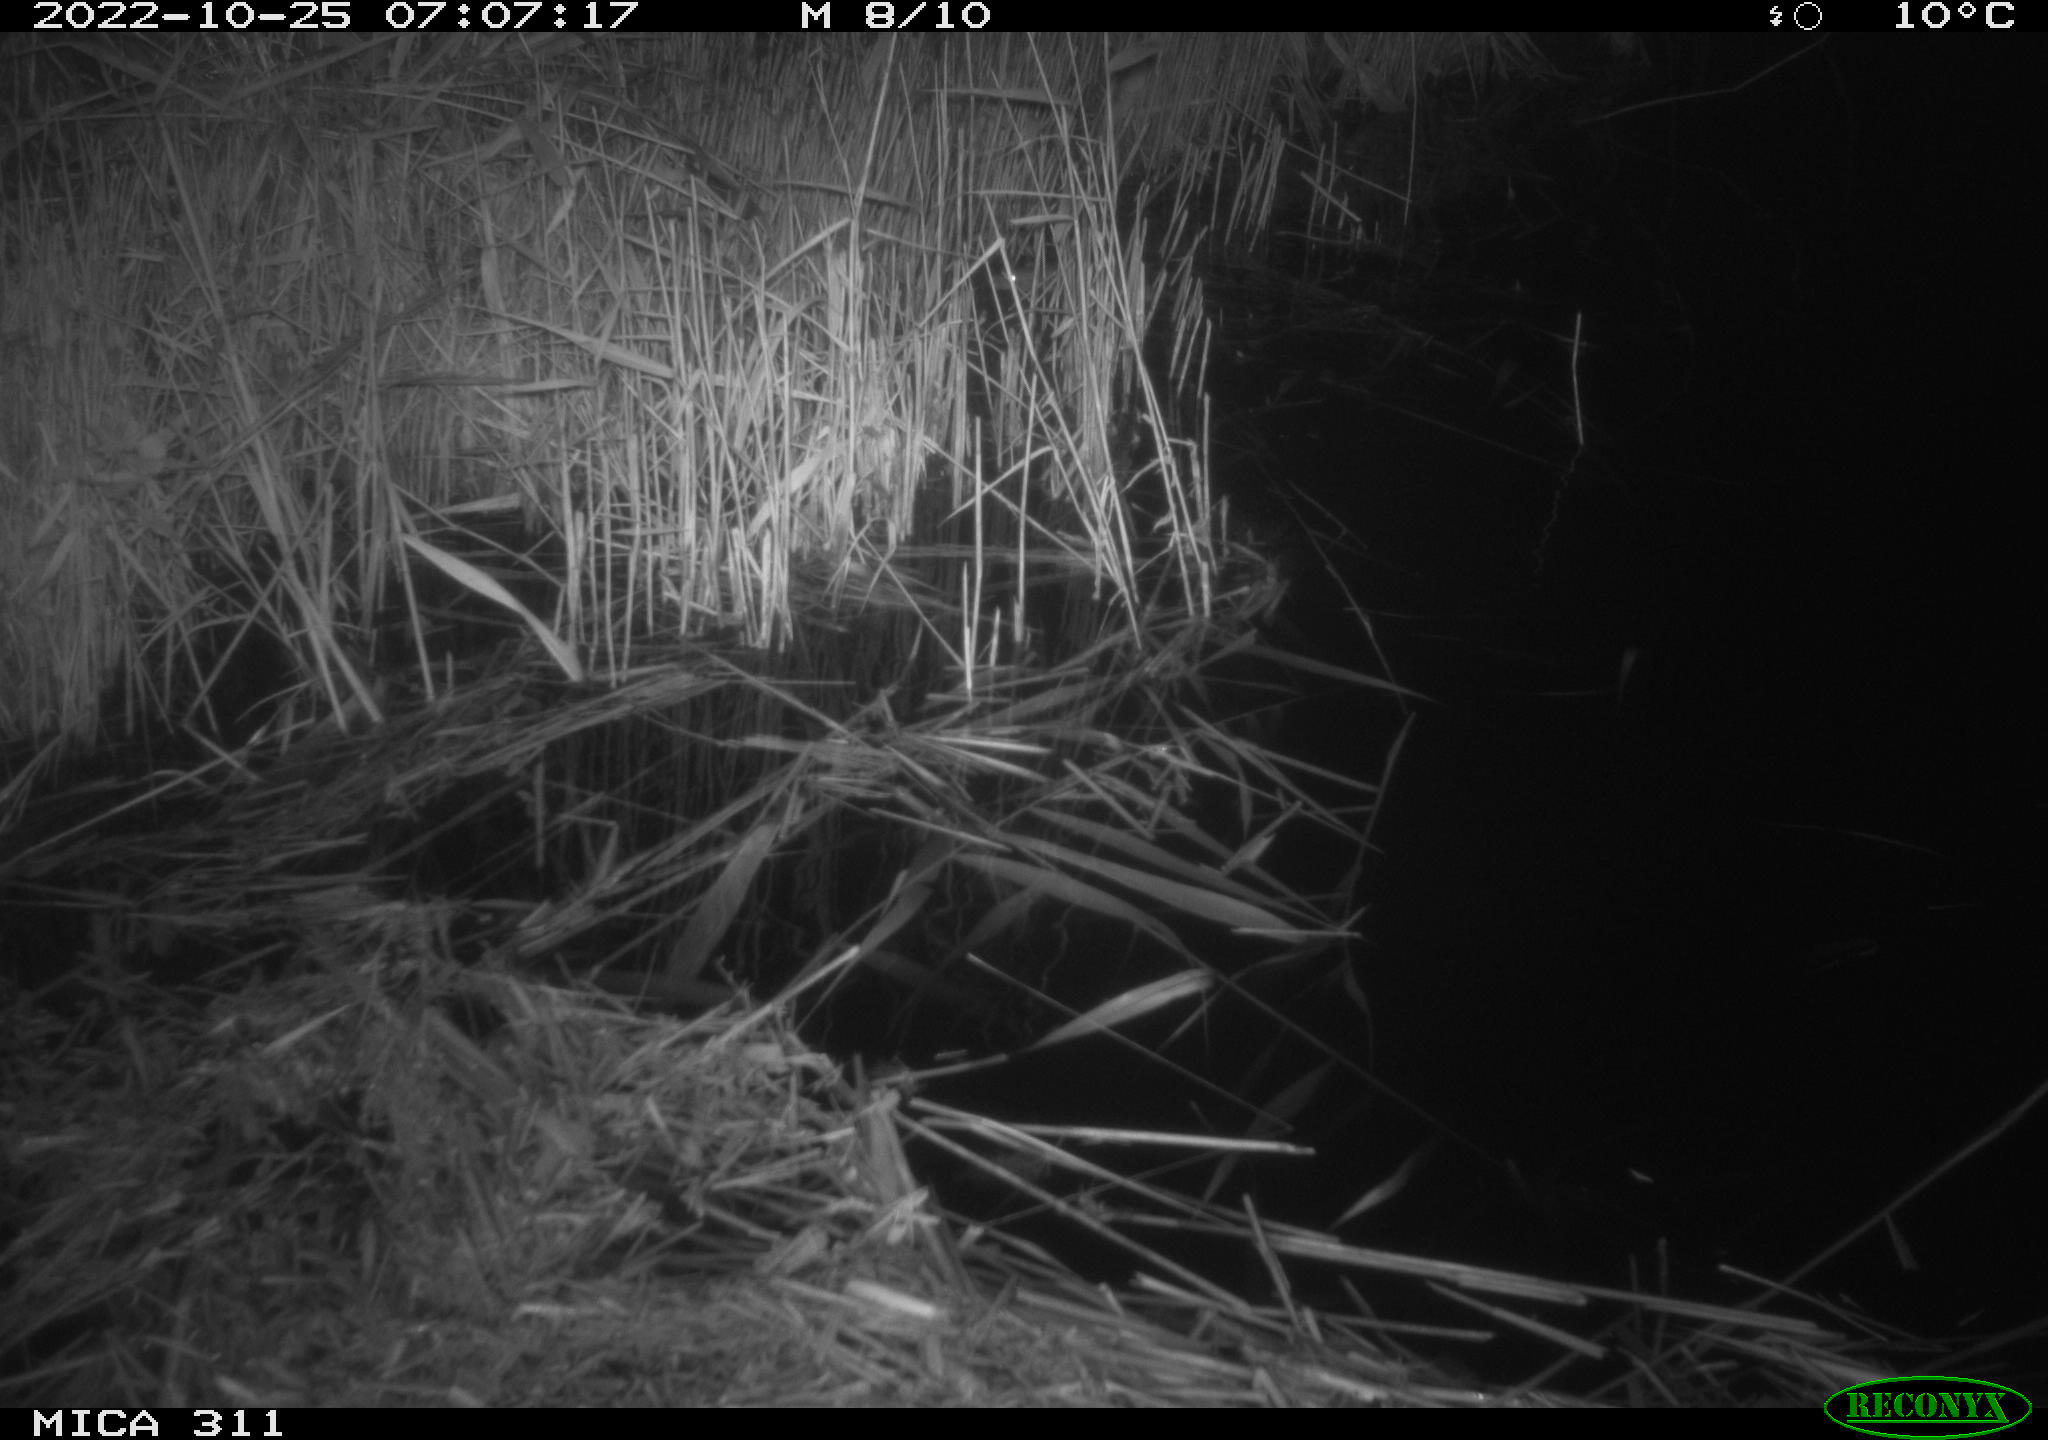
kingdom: Animalia
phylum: Chordata
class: Mammalia
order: Rodentia
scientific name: Rodentia
